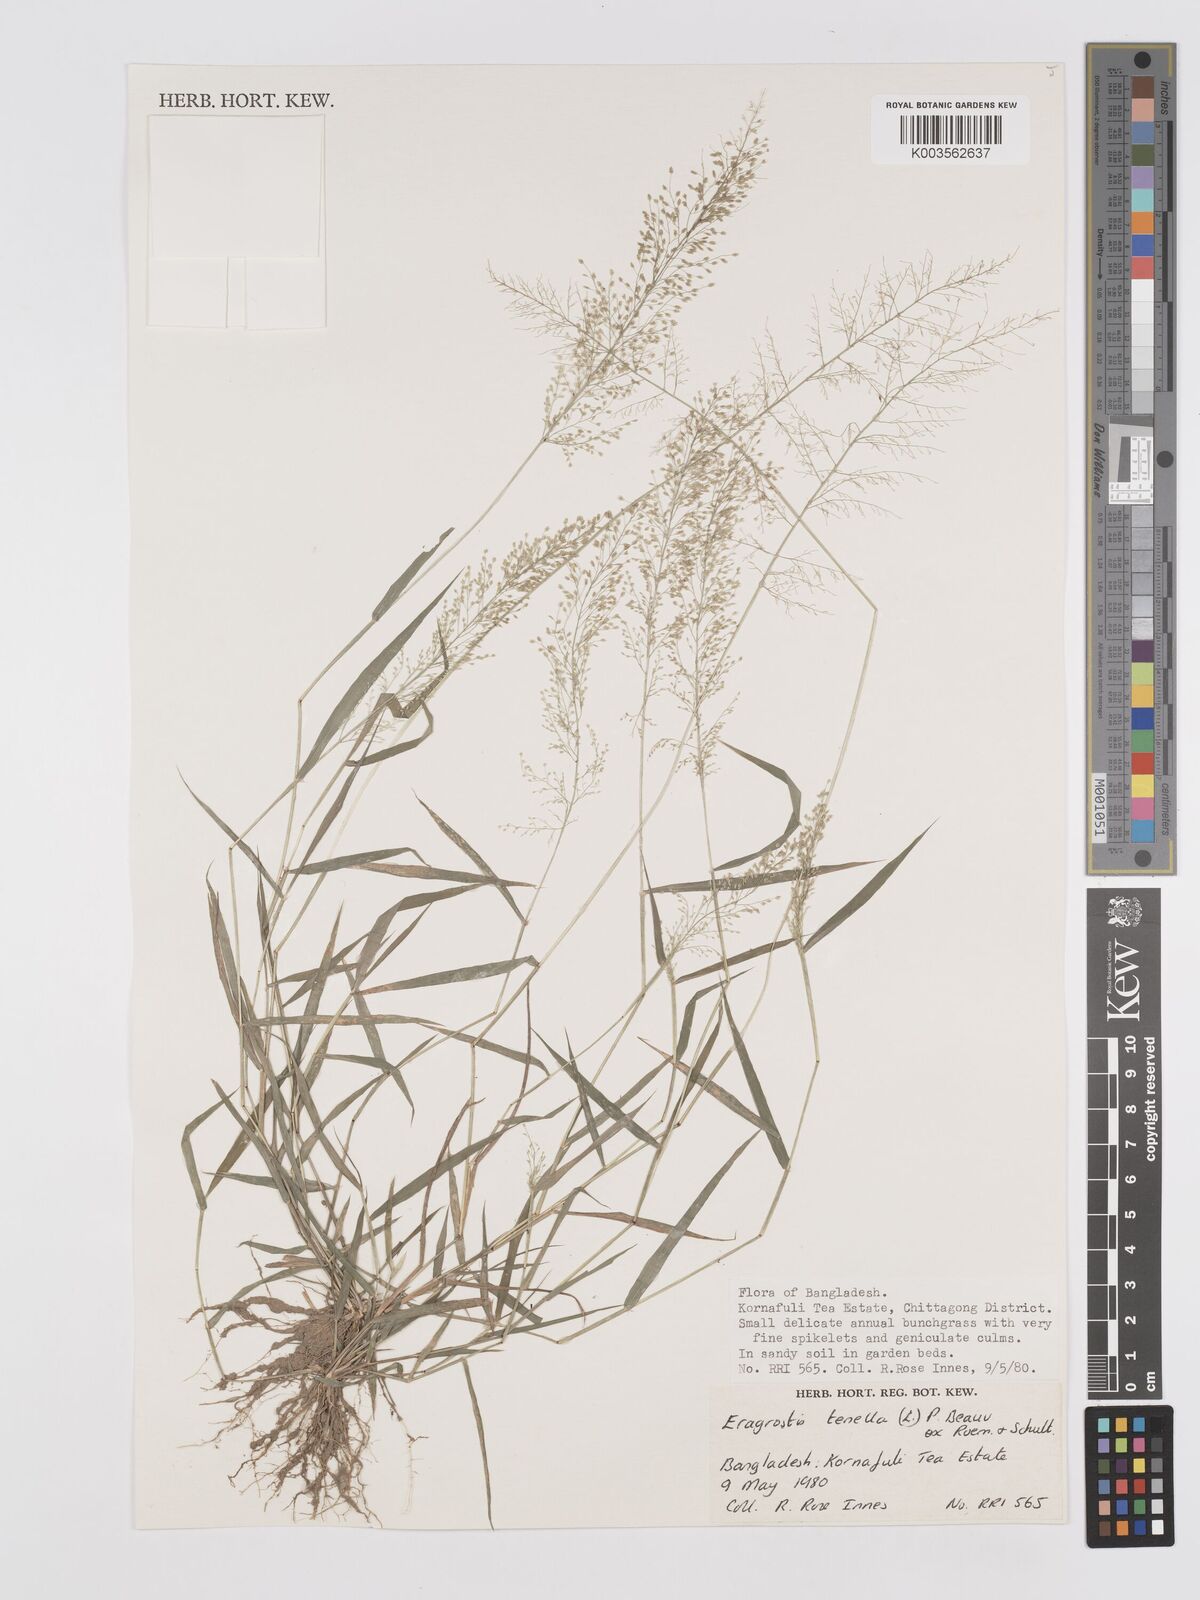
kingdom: Plantae
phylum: Tracheophyta
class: Liliopsida
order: Poales
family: Poaceae
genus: Eragrostis
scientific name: Eragrostis tenella
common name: Japanese lovegrass
